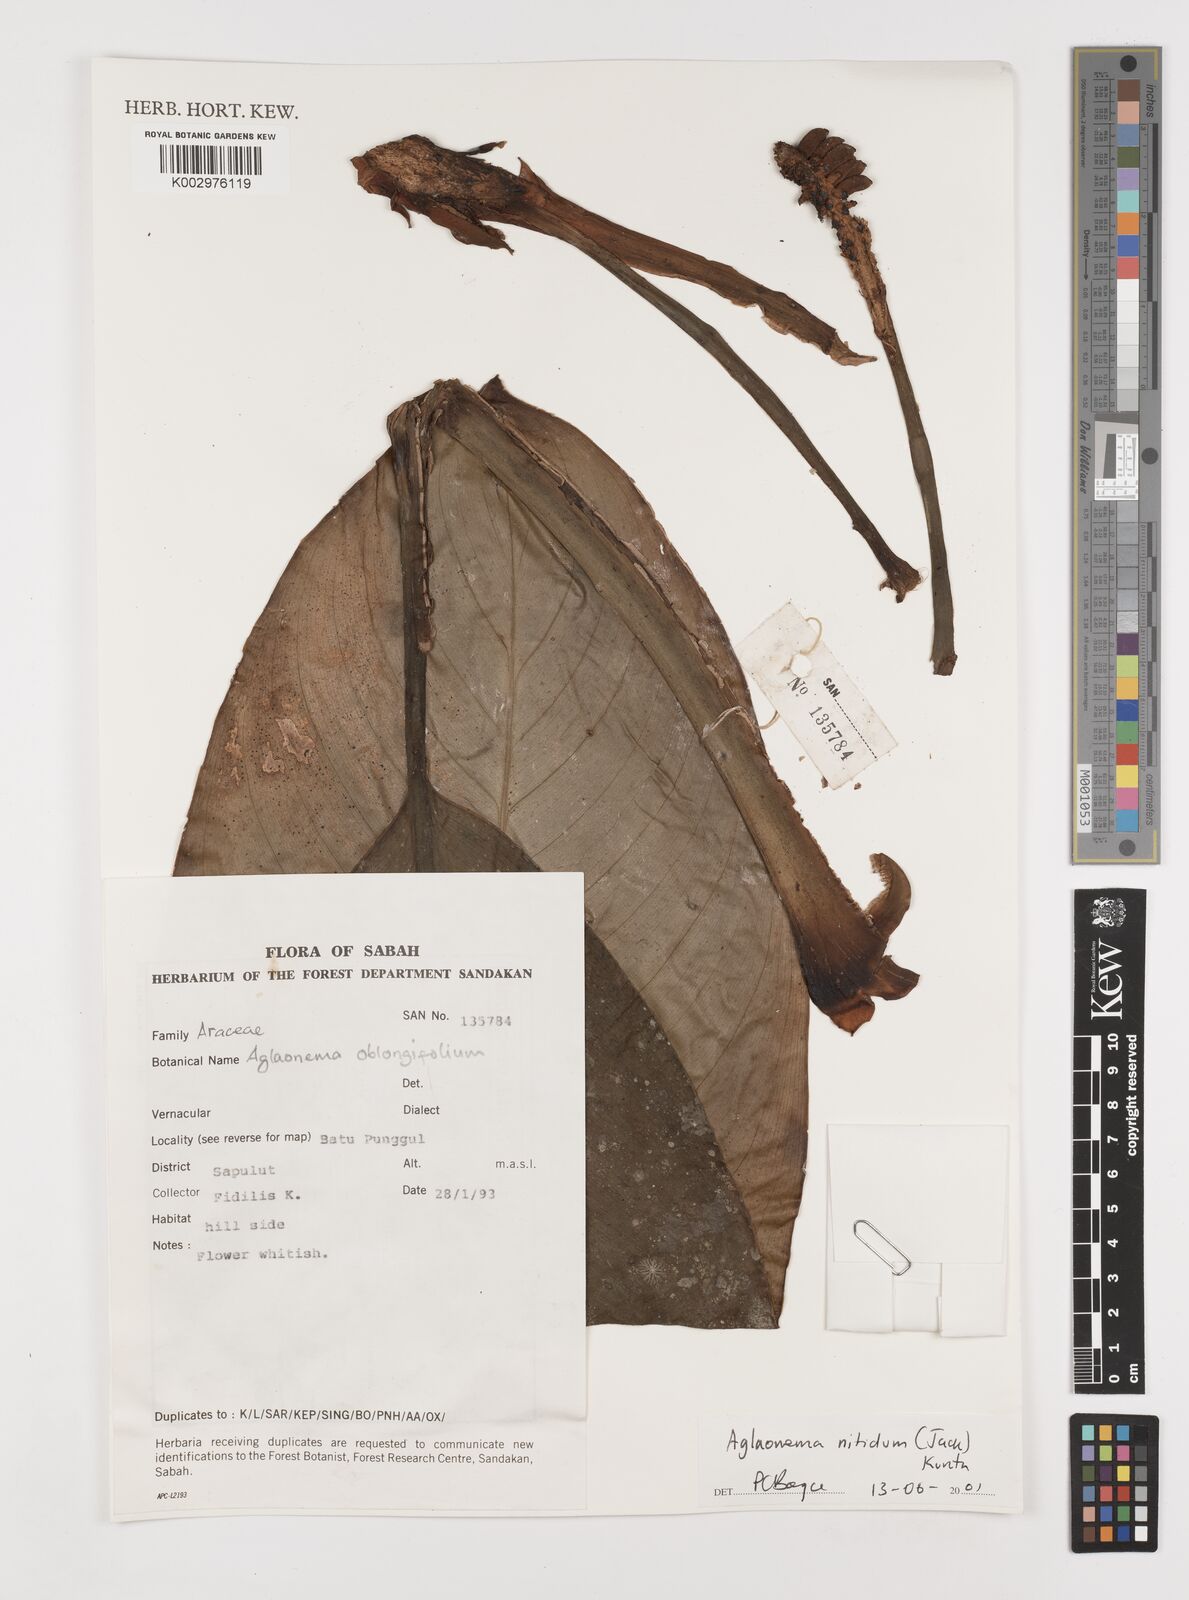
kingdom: Plantae
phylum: Tracheophyta
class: Liliopsida
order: Alismatales
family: Araceae
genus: Aglaonema
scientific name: Aglaonema nitidum
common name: Aglaonema aroid
